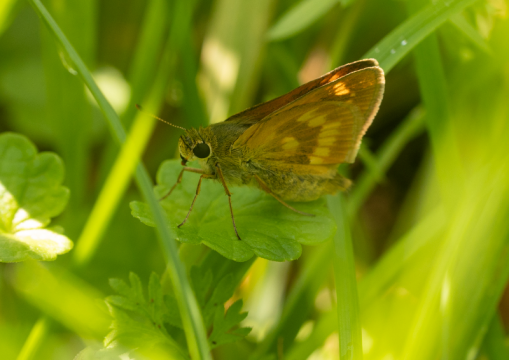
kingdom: Animalia
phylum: Arthropoda
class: Insecta
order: Lepidoptera
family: Hesperiidae
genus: Polites
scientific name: Polites
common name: Long Dash Skipper
